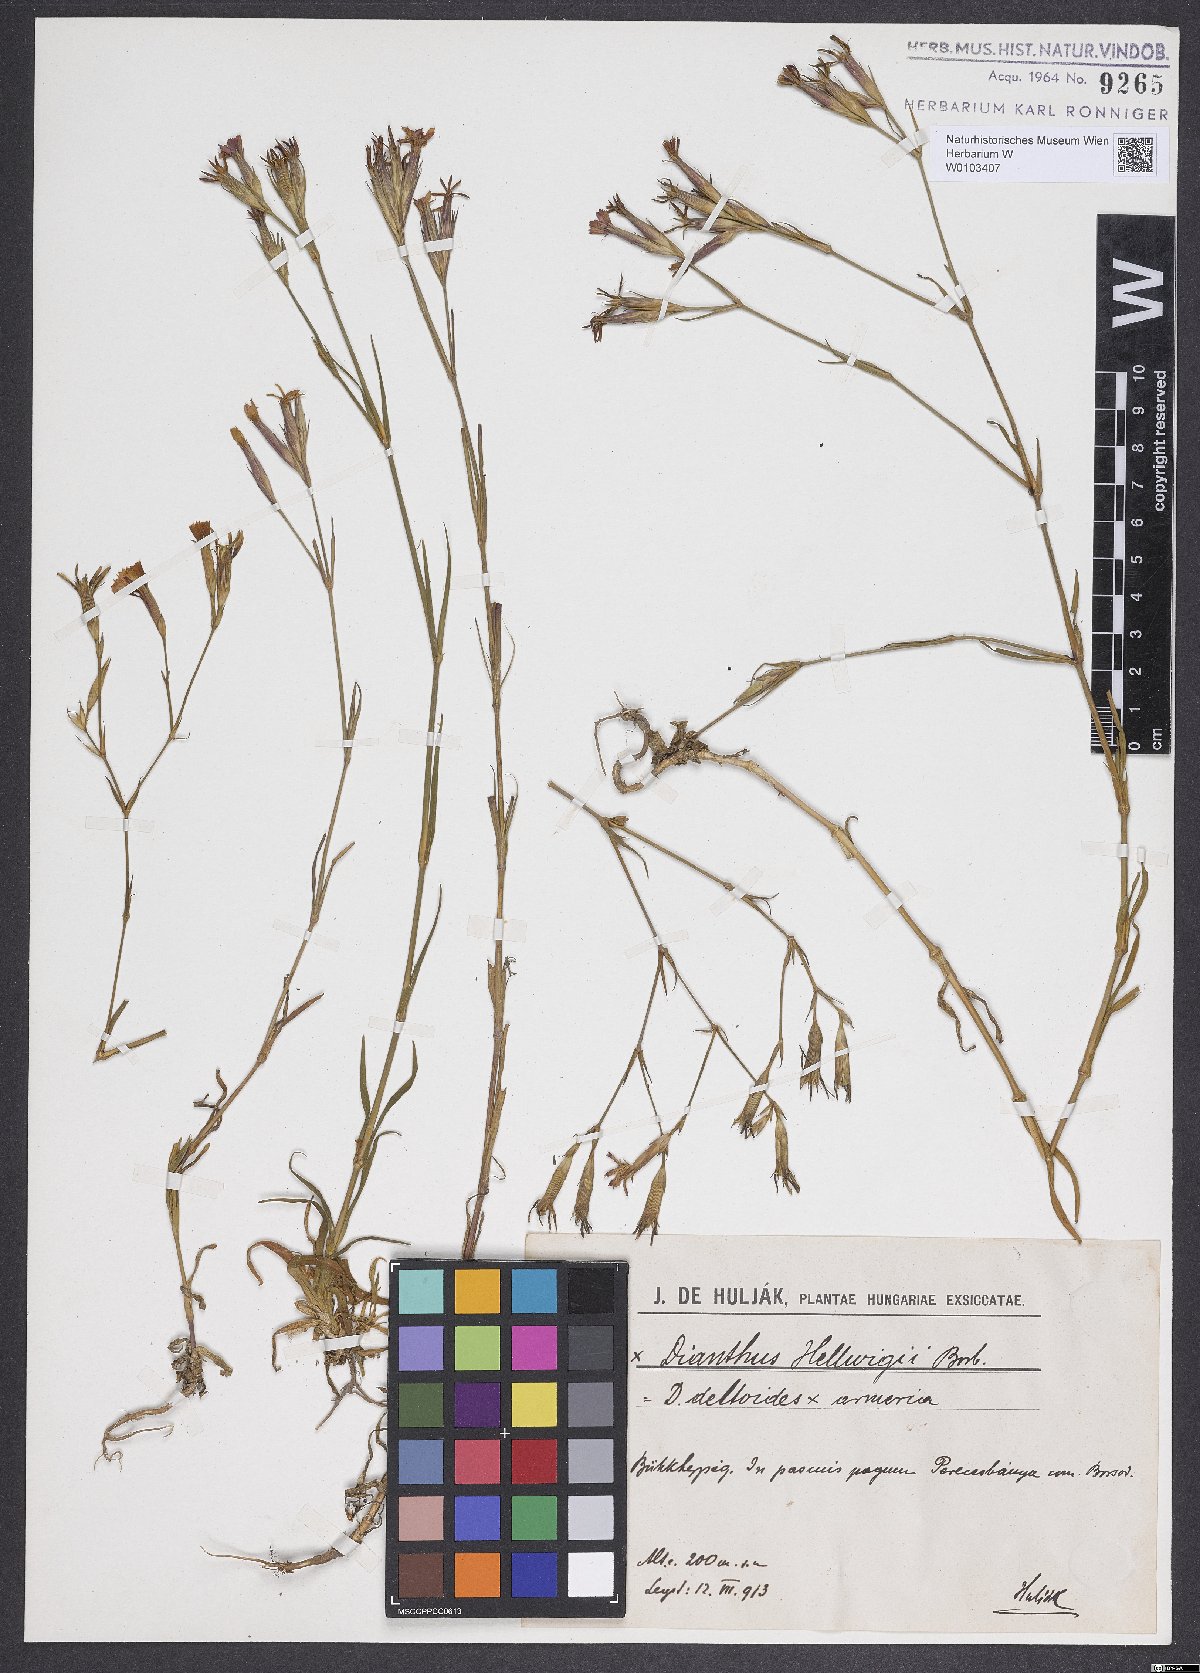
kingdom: Plantae
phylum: Tracheophyta
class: Magnoliopsida
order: Caryophyllales
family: Caryophyllaceae
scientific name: Caryophyllaceae
